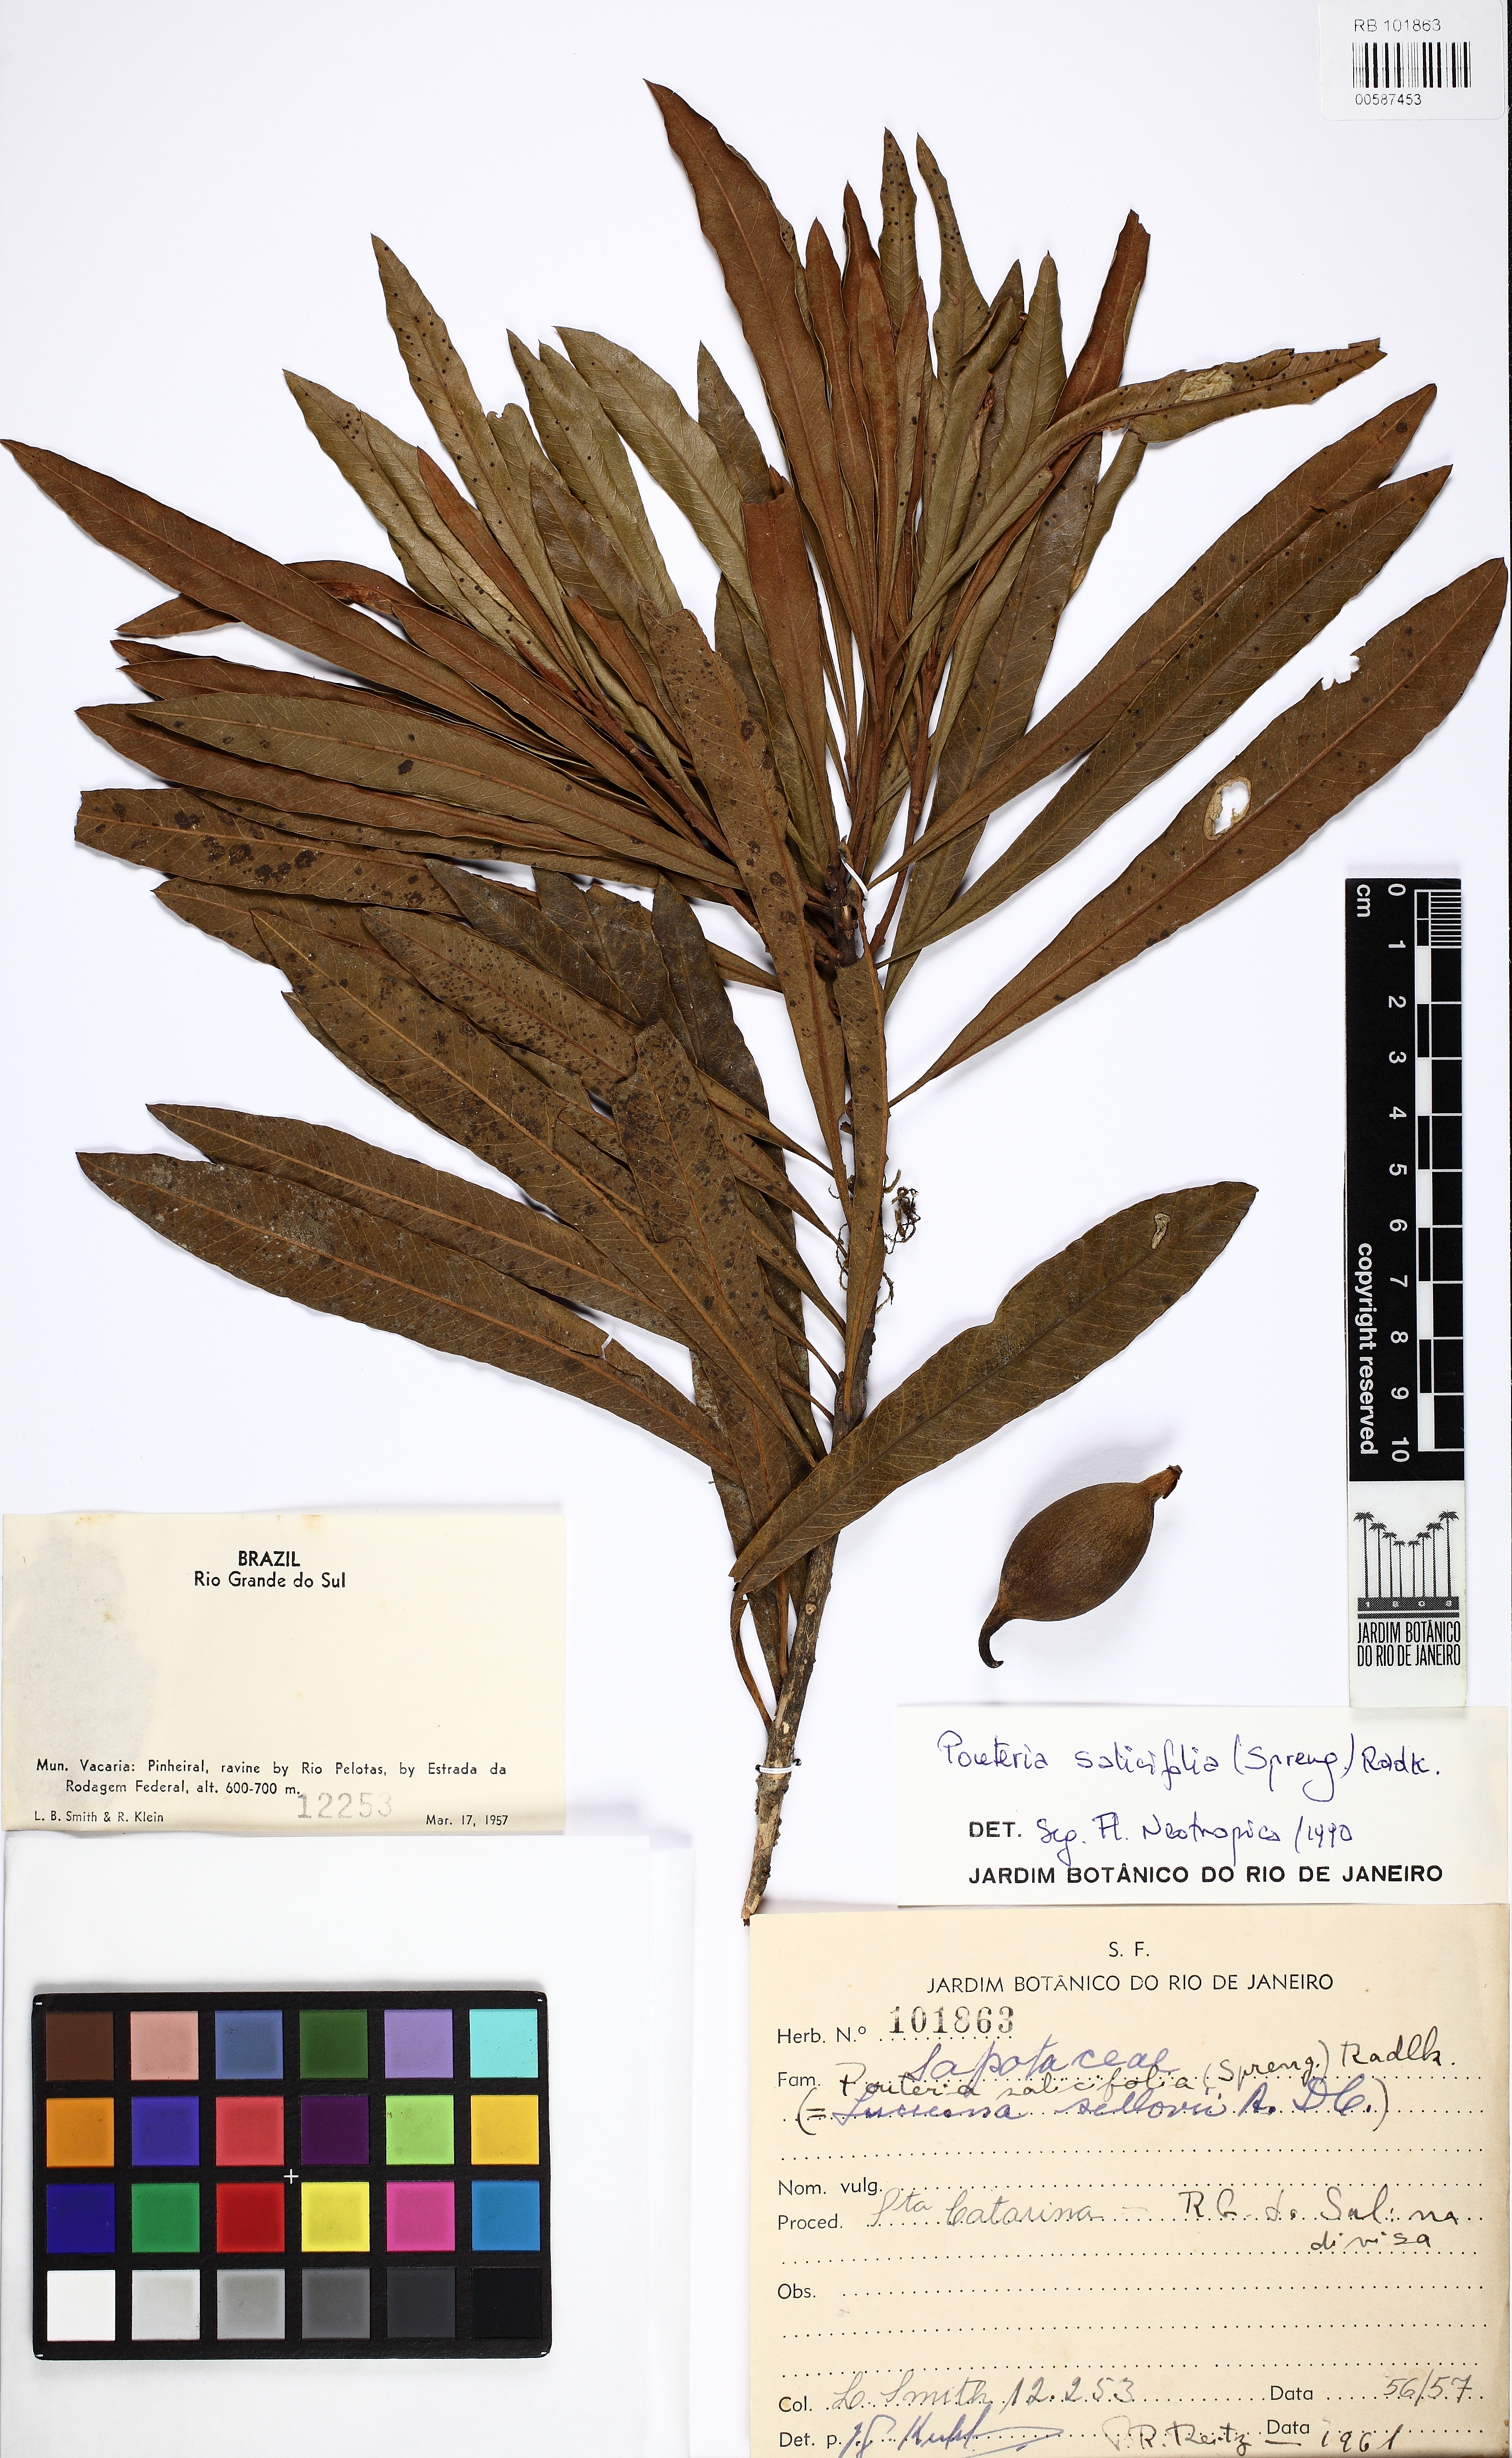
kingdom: Plantae
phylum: Tracheophyta
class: Magnoliopsida
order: Ericales
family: Sapotaceae
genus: Pouteria
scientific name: Pouteria salicifolia
